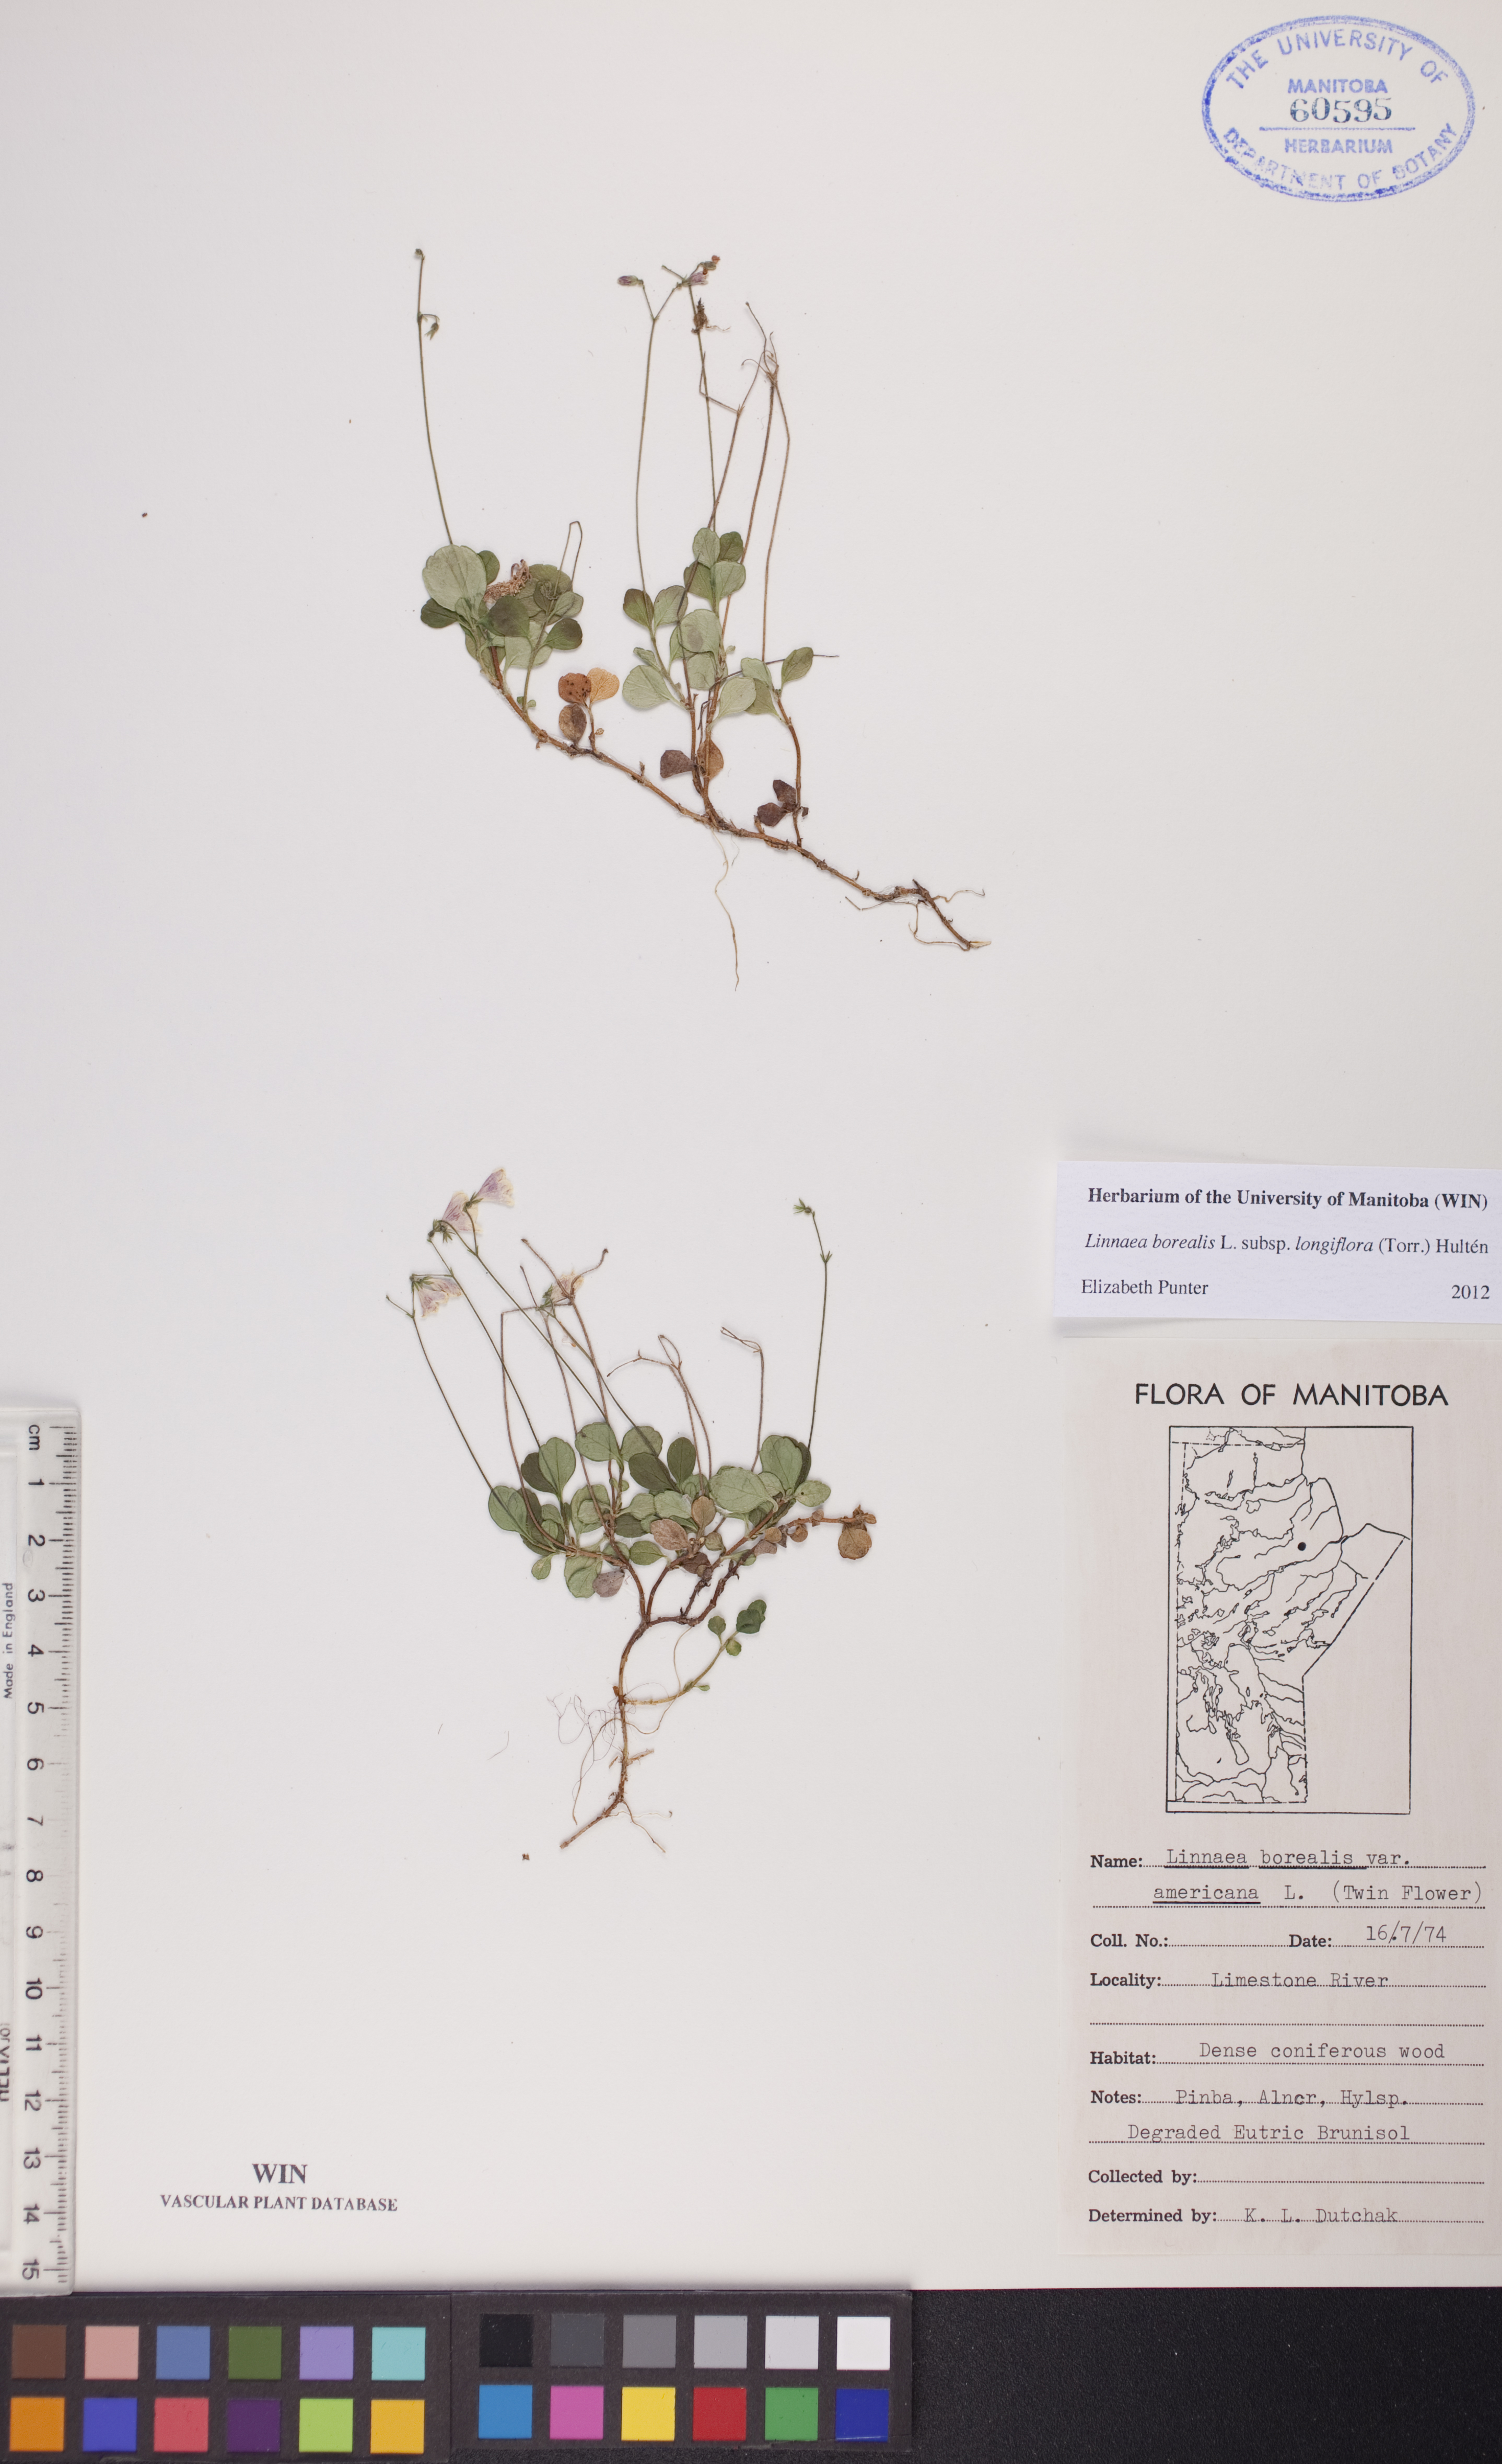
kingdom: Plantae
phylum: Tracheophyta
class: Magnoliopsida
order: Dipsacales
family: Caprifoliaceae
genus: Linnaea
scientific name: Linnaea borealis
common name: Twinflower
